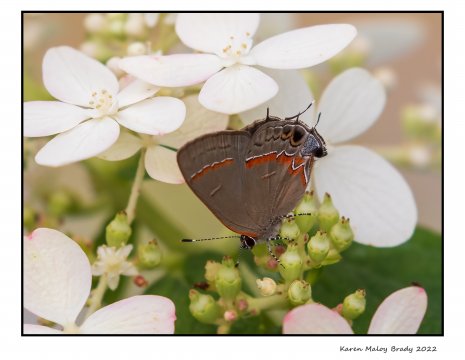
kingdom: Animalia
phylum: Arthropoda
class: Insecta
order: Lepidoptera
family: Lycaenidae
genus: Calycopis
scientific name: Calycopis cecrops
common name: Red-banded Hairstreak
